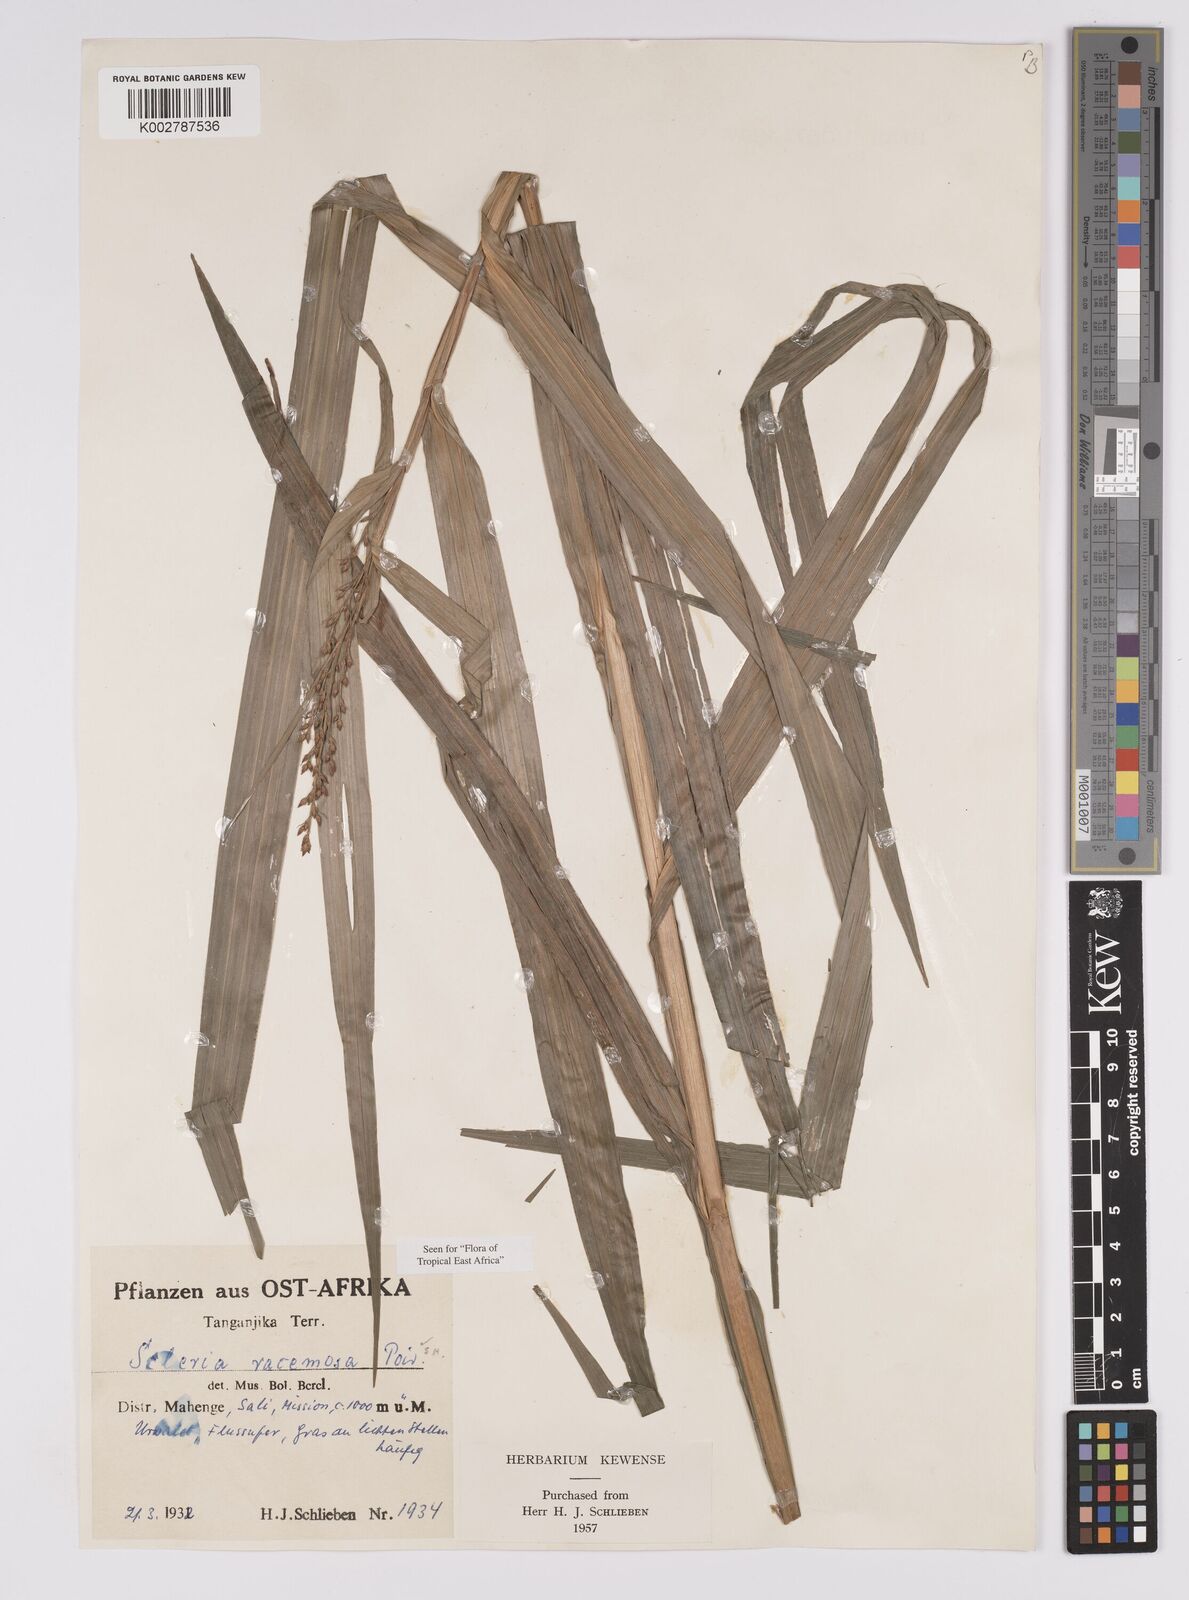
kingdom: Plantae
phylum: Tracheophyta
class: Liliopsida
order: Poales
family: Cyperaceae
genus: Scleria
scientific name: Scleria racemosa
